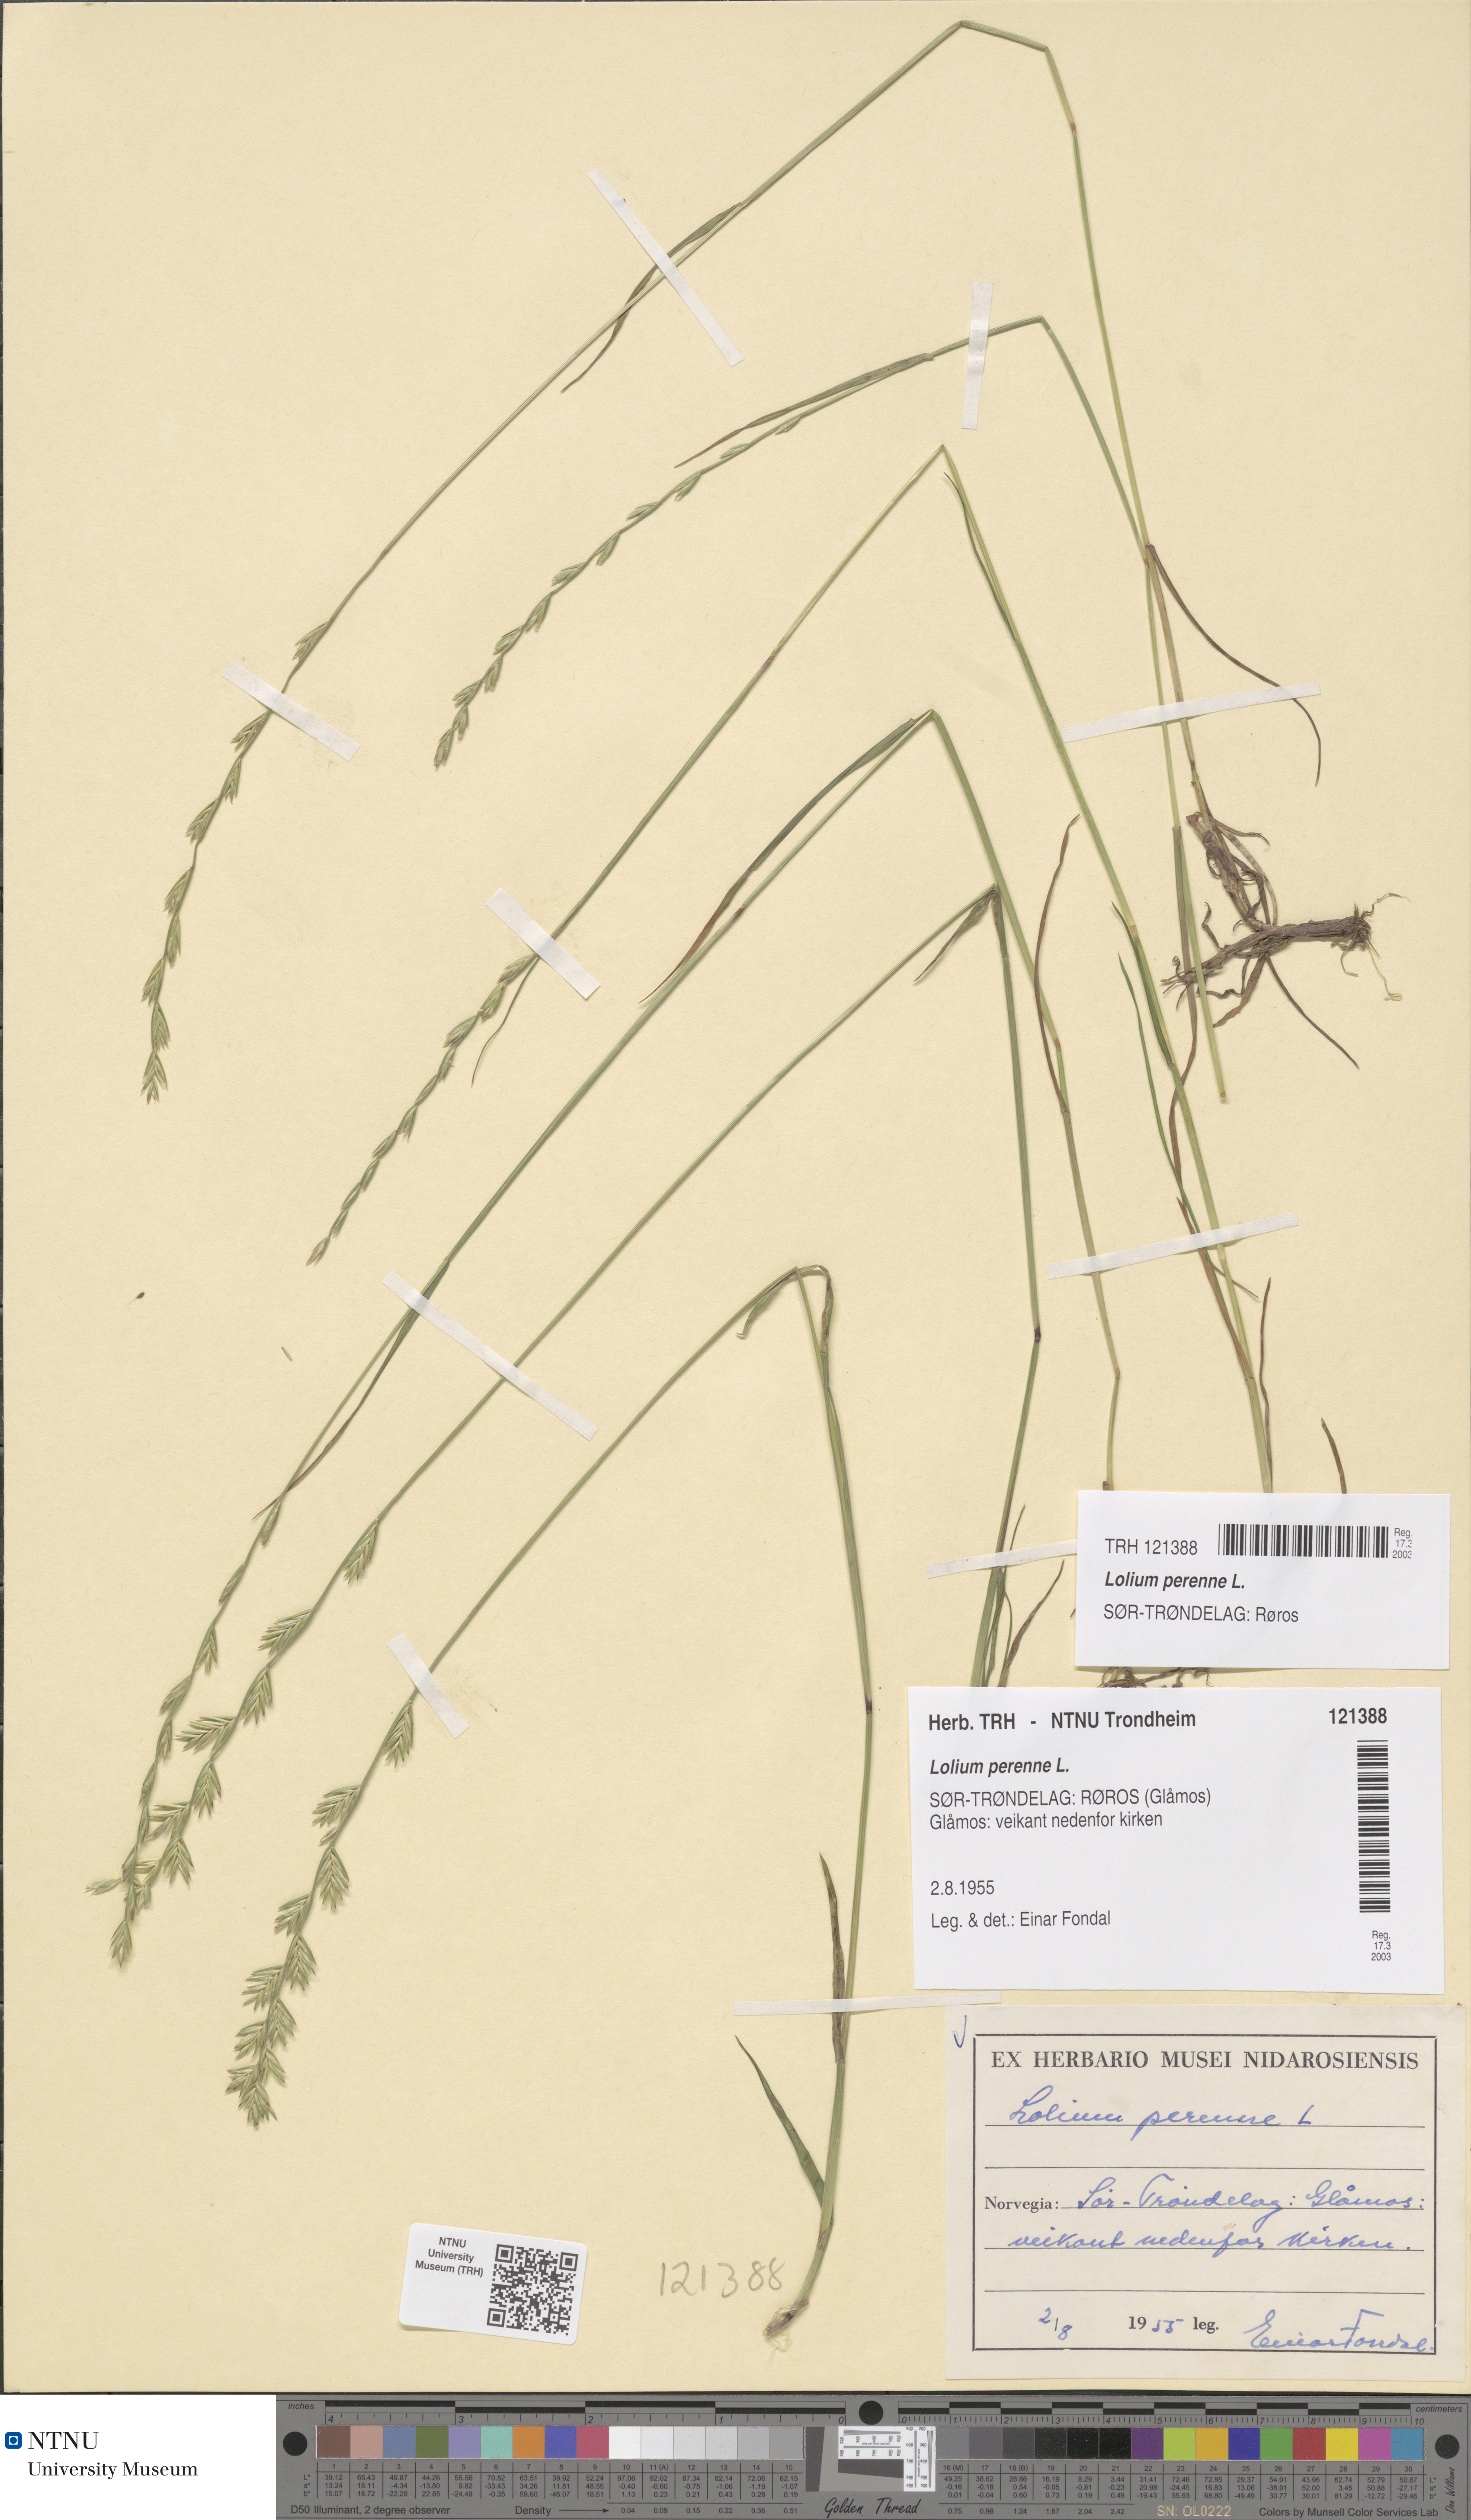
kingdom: Plantae
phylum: Tracheophyta
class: Liliopsida
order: Poales
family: Poaceae
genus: Lolium
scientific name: Lolium perenne
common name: Perennial ryegrass
